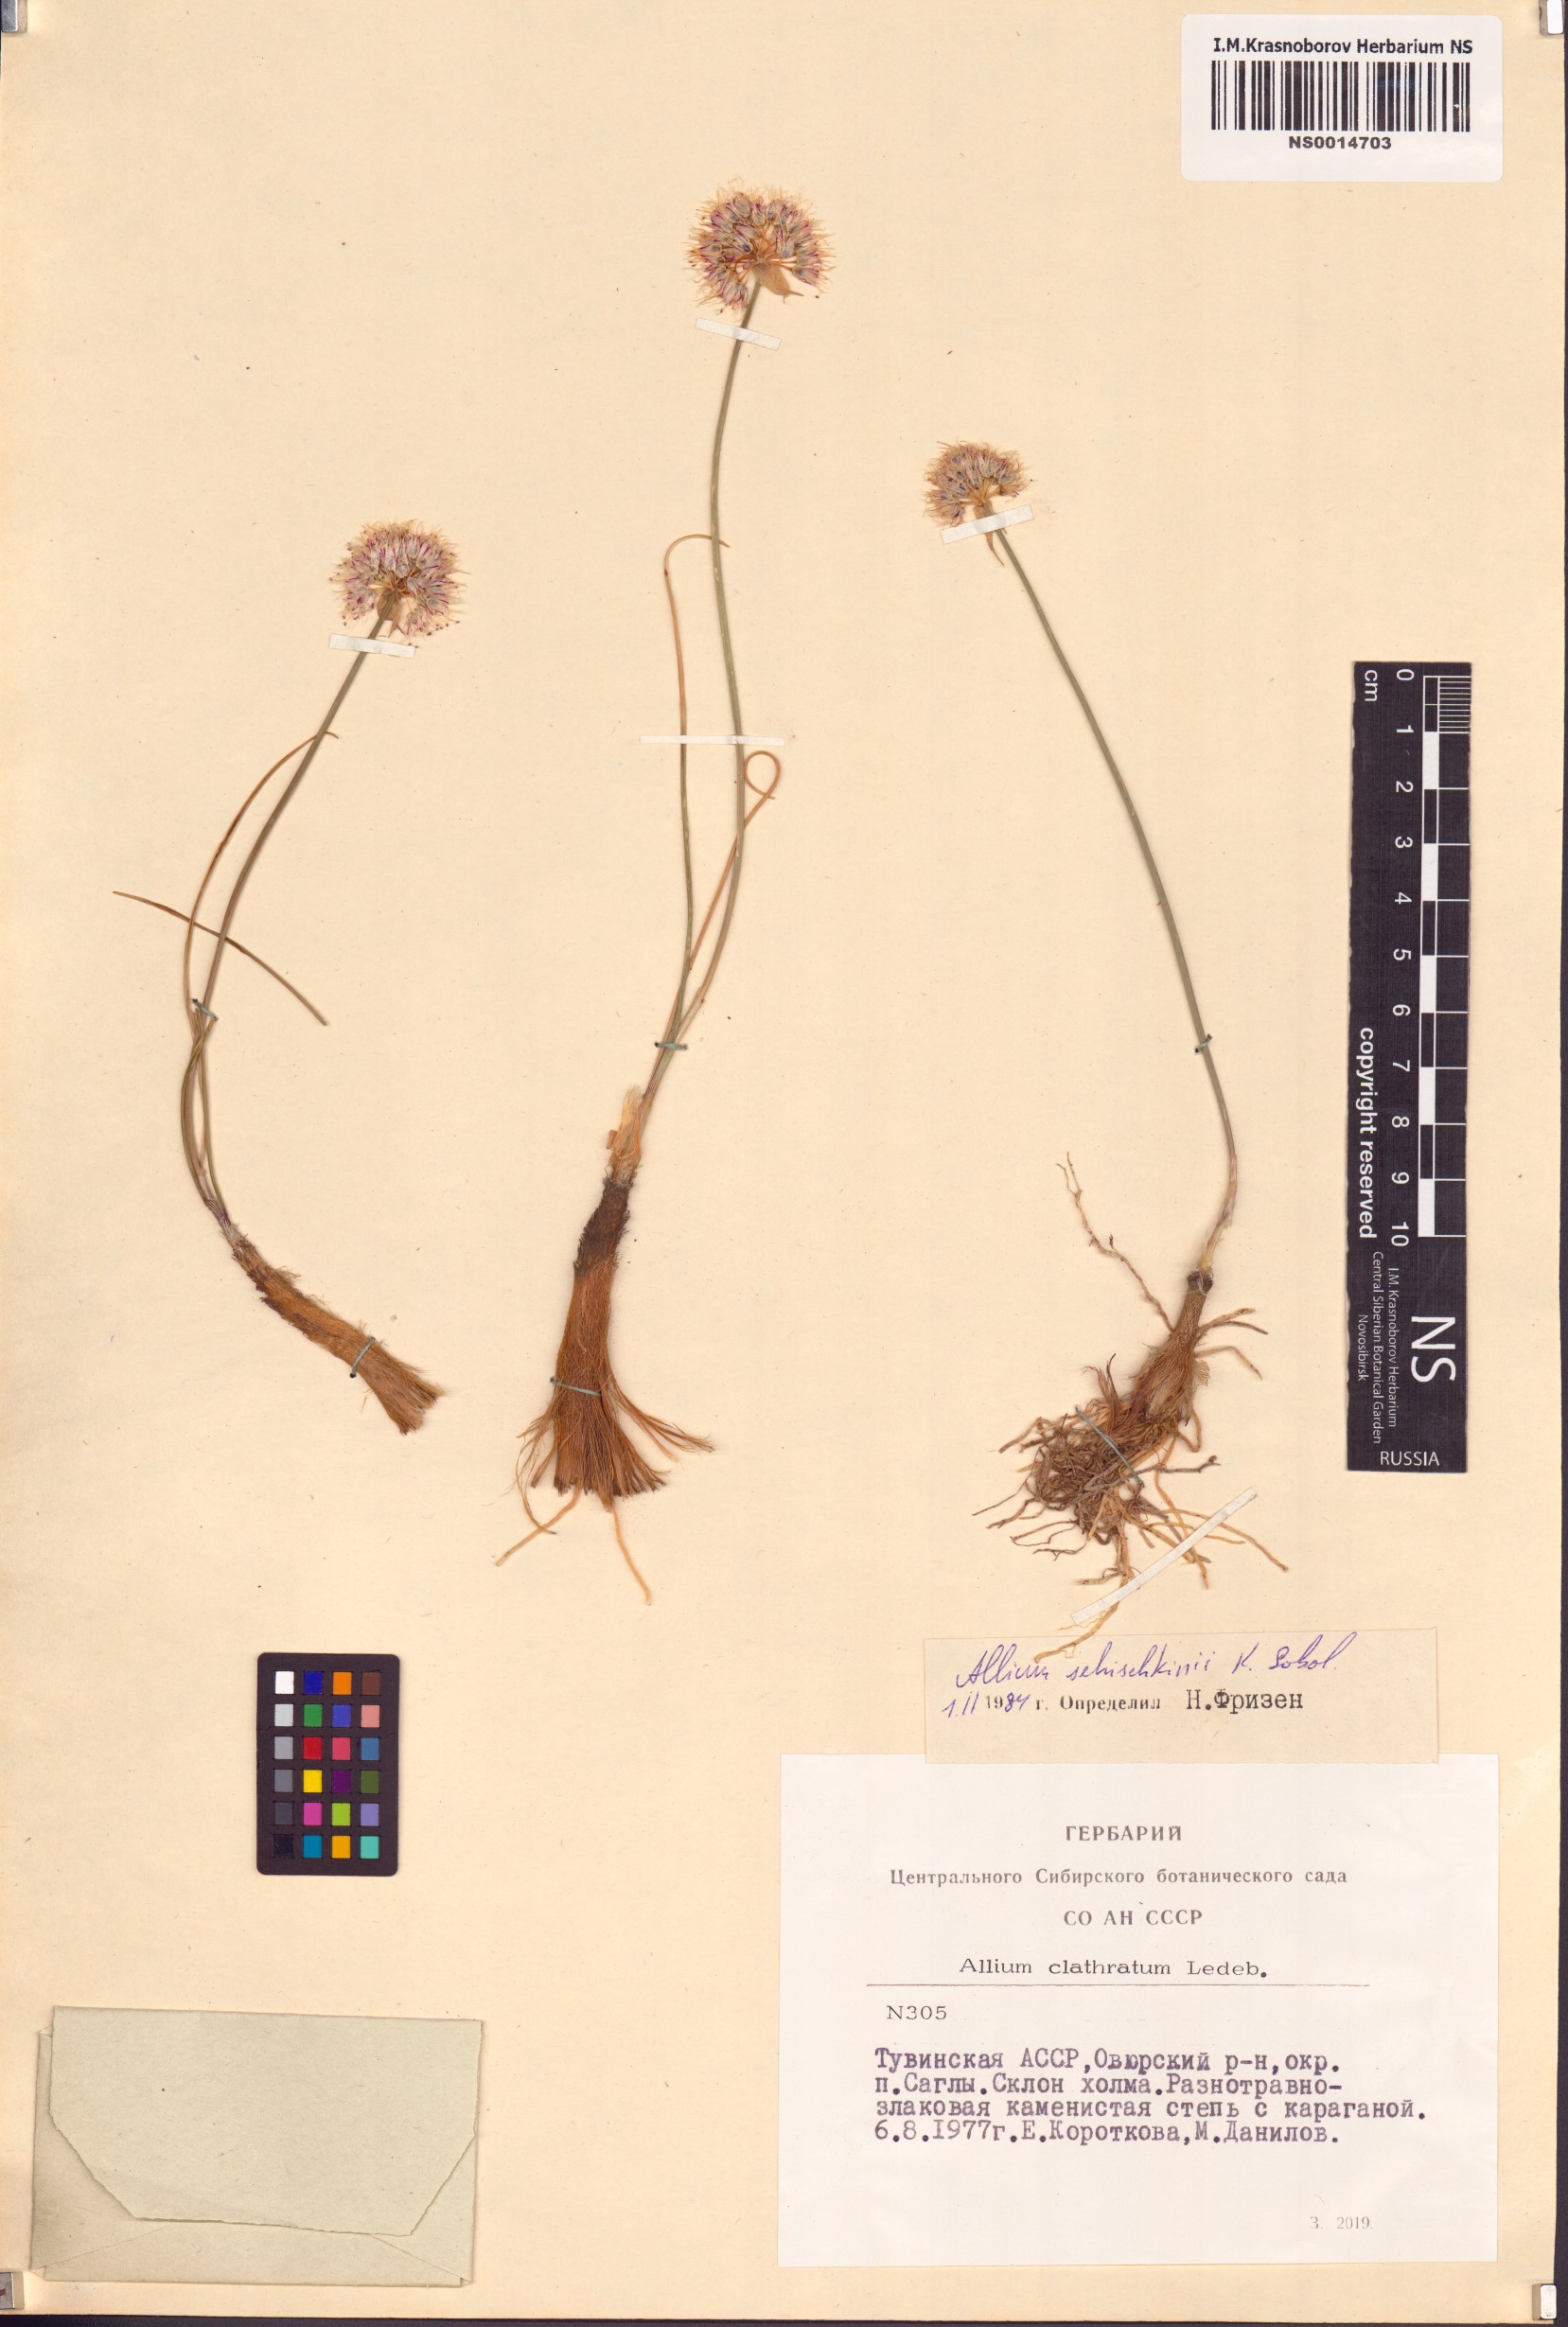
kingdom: Plantae
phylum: Tracheophyta
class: Liliopsida
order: Asparagales
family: Amaryllidaceae
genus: Allium
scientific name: Allium schischkinii
